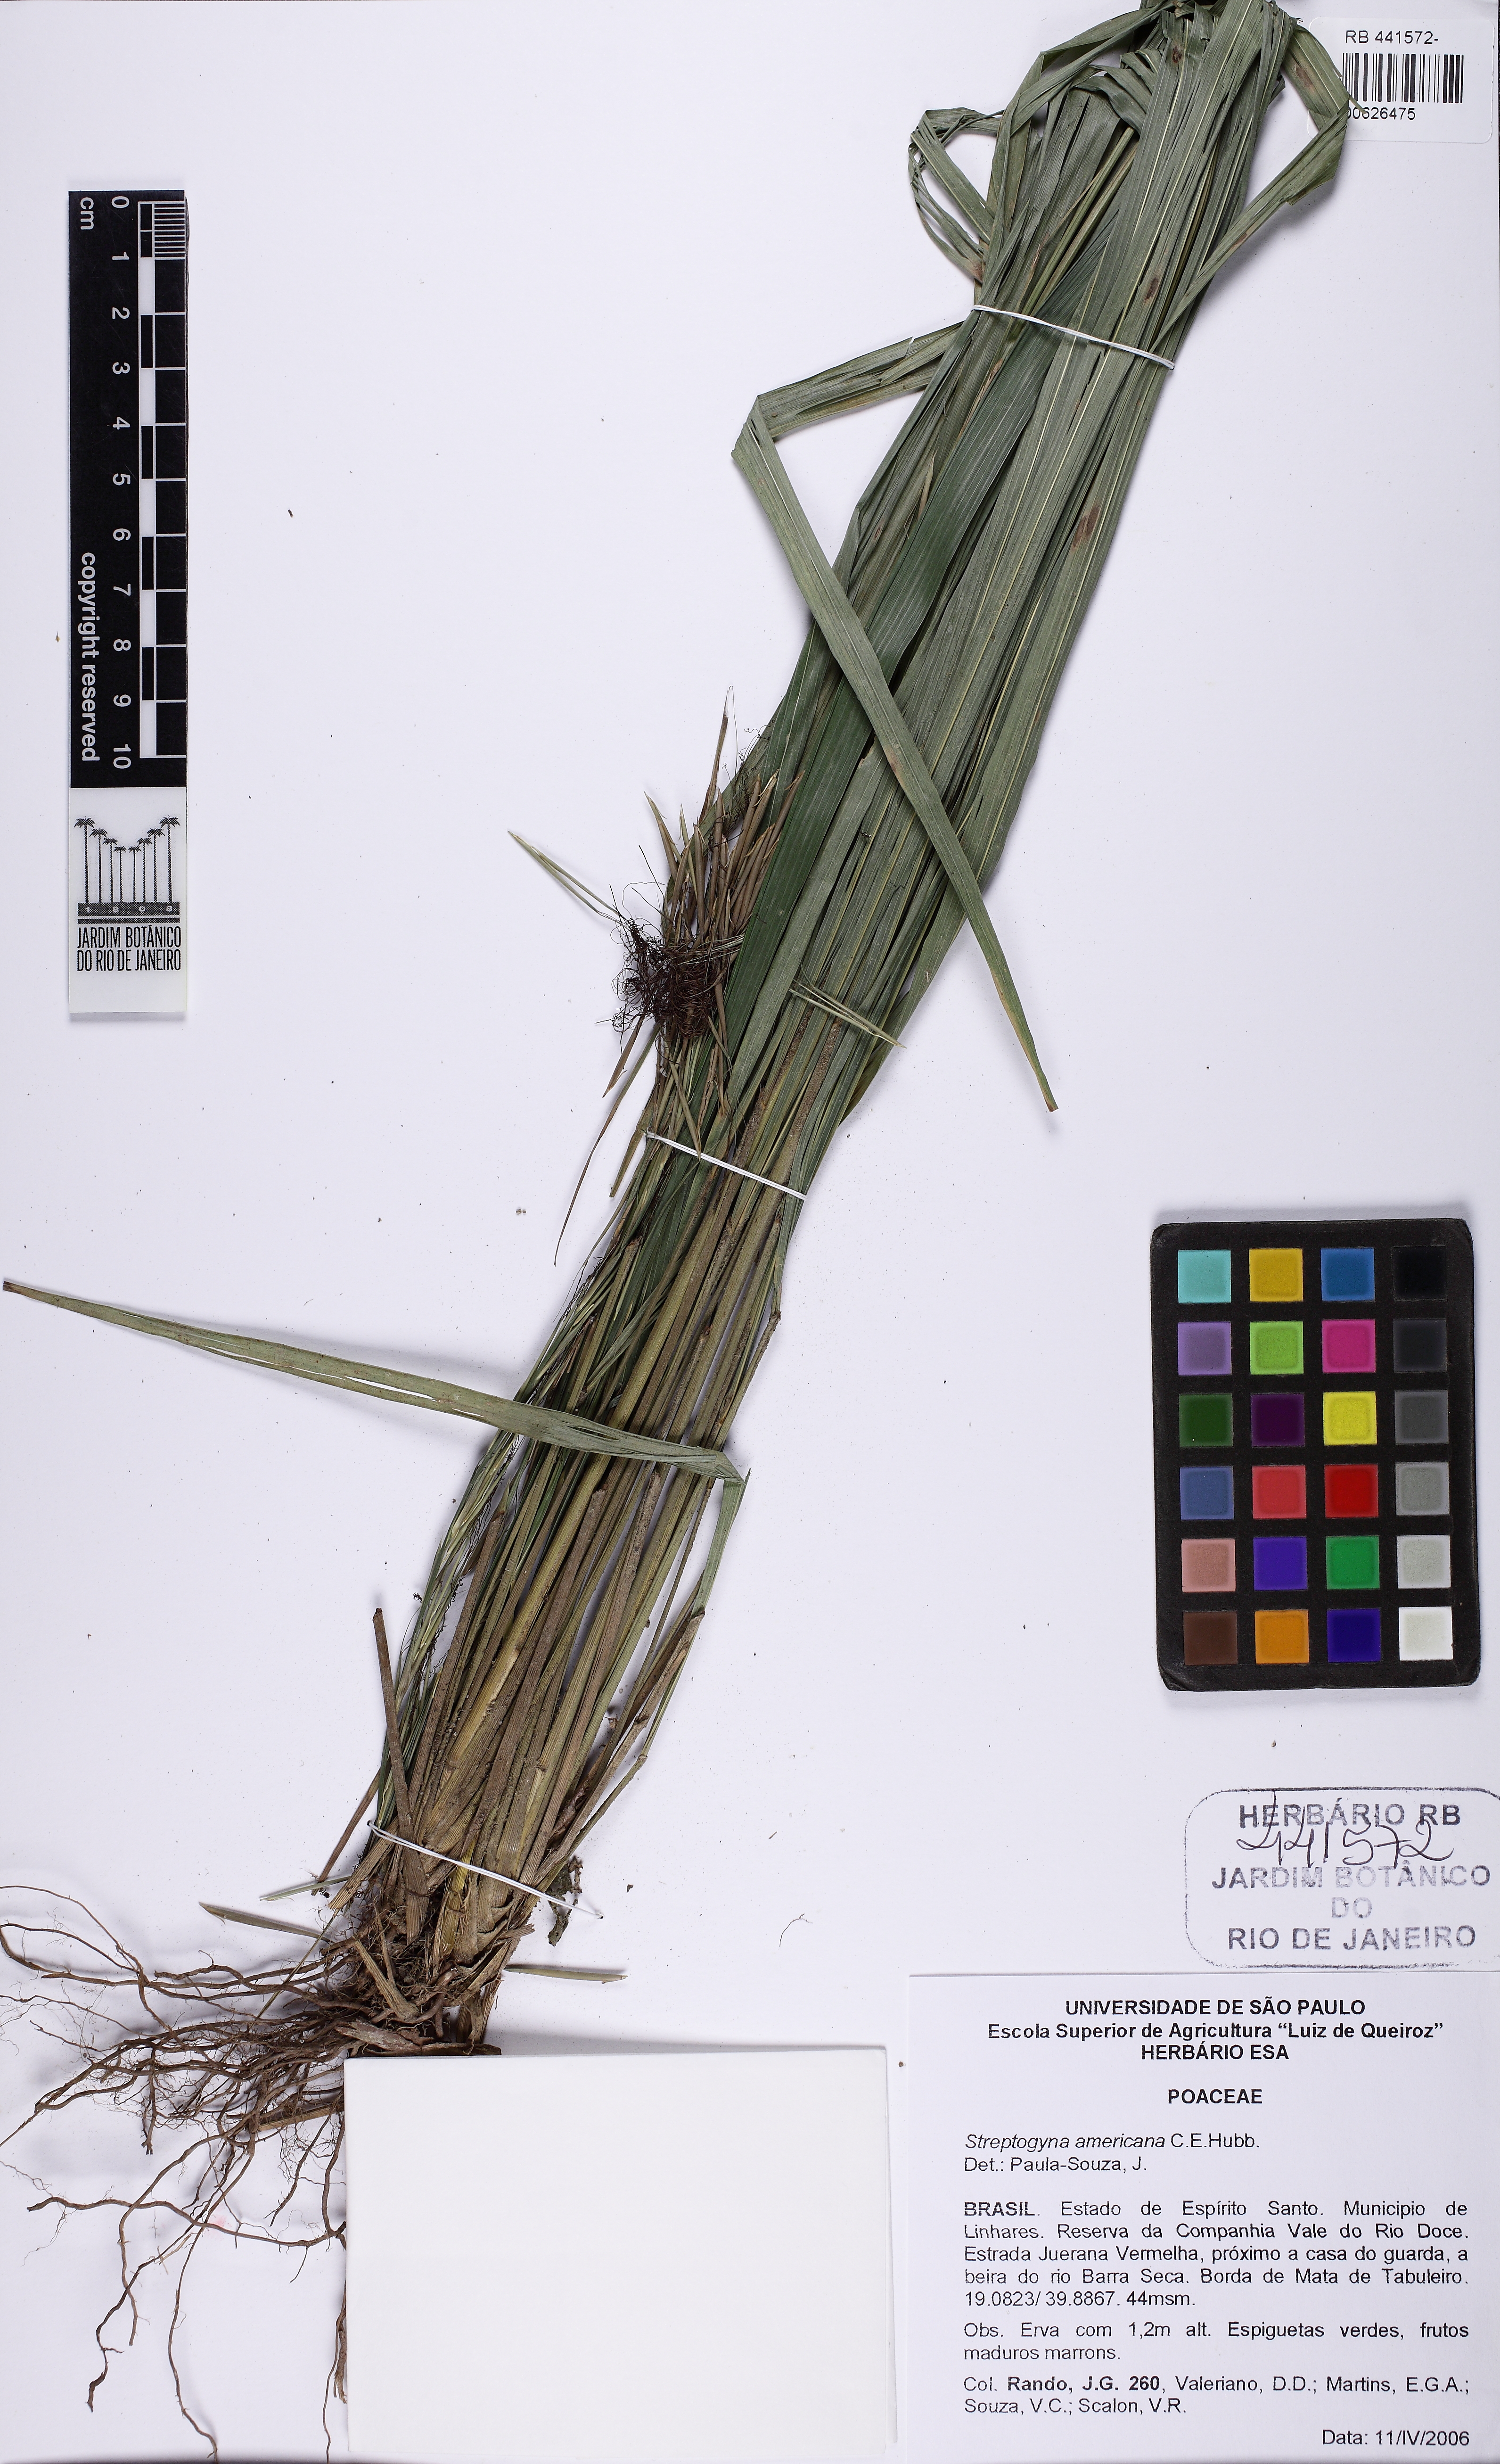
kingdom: Plantae
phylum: Tracheophyta
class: Liliopsida
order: Poales
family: Poaceae
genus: Streptogyna
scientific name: Streptogyna americana
